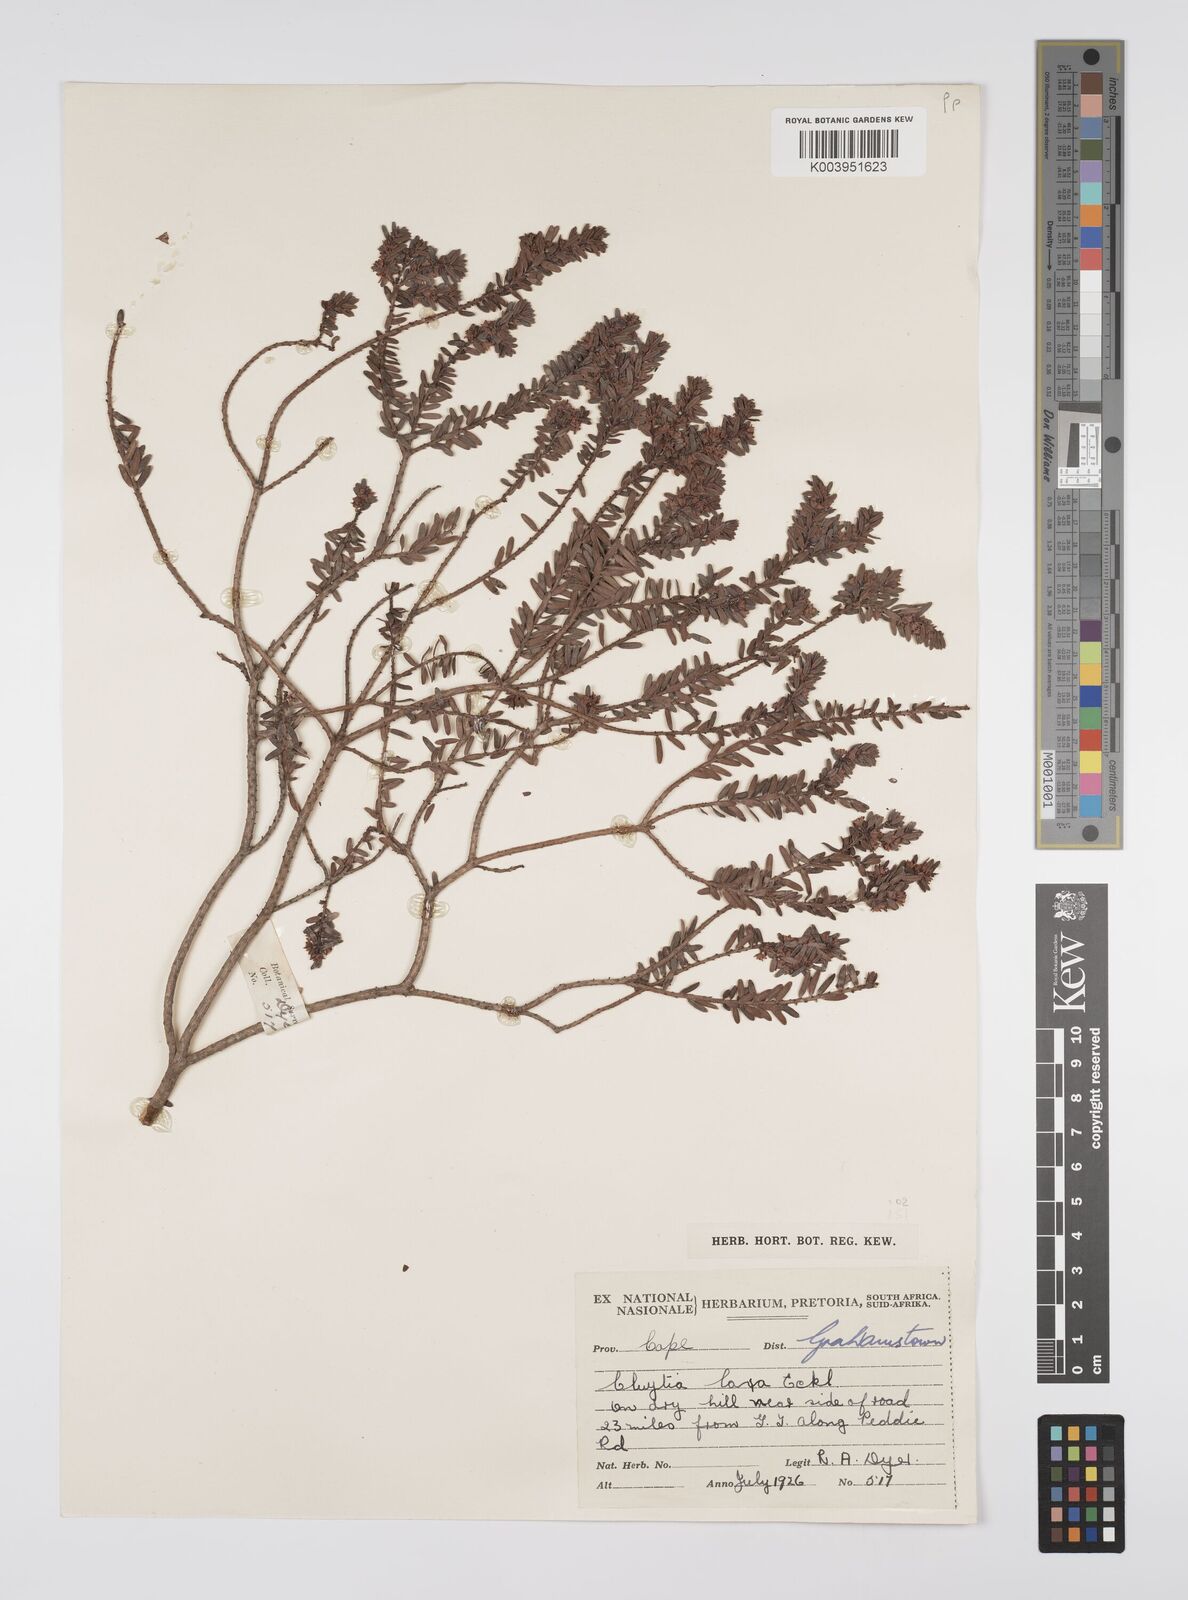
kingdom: Plantae
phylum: Tracheophyta
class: Magnoliopsida
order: Malpighiales
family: Peraceae
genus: Clutia
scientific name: Clutia laxa
